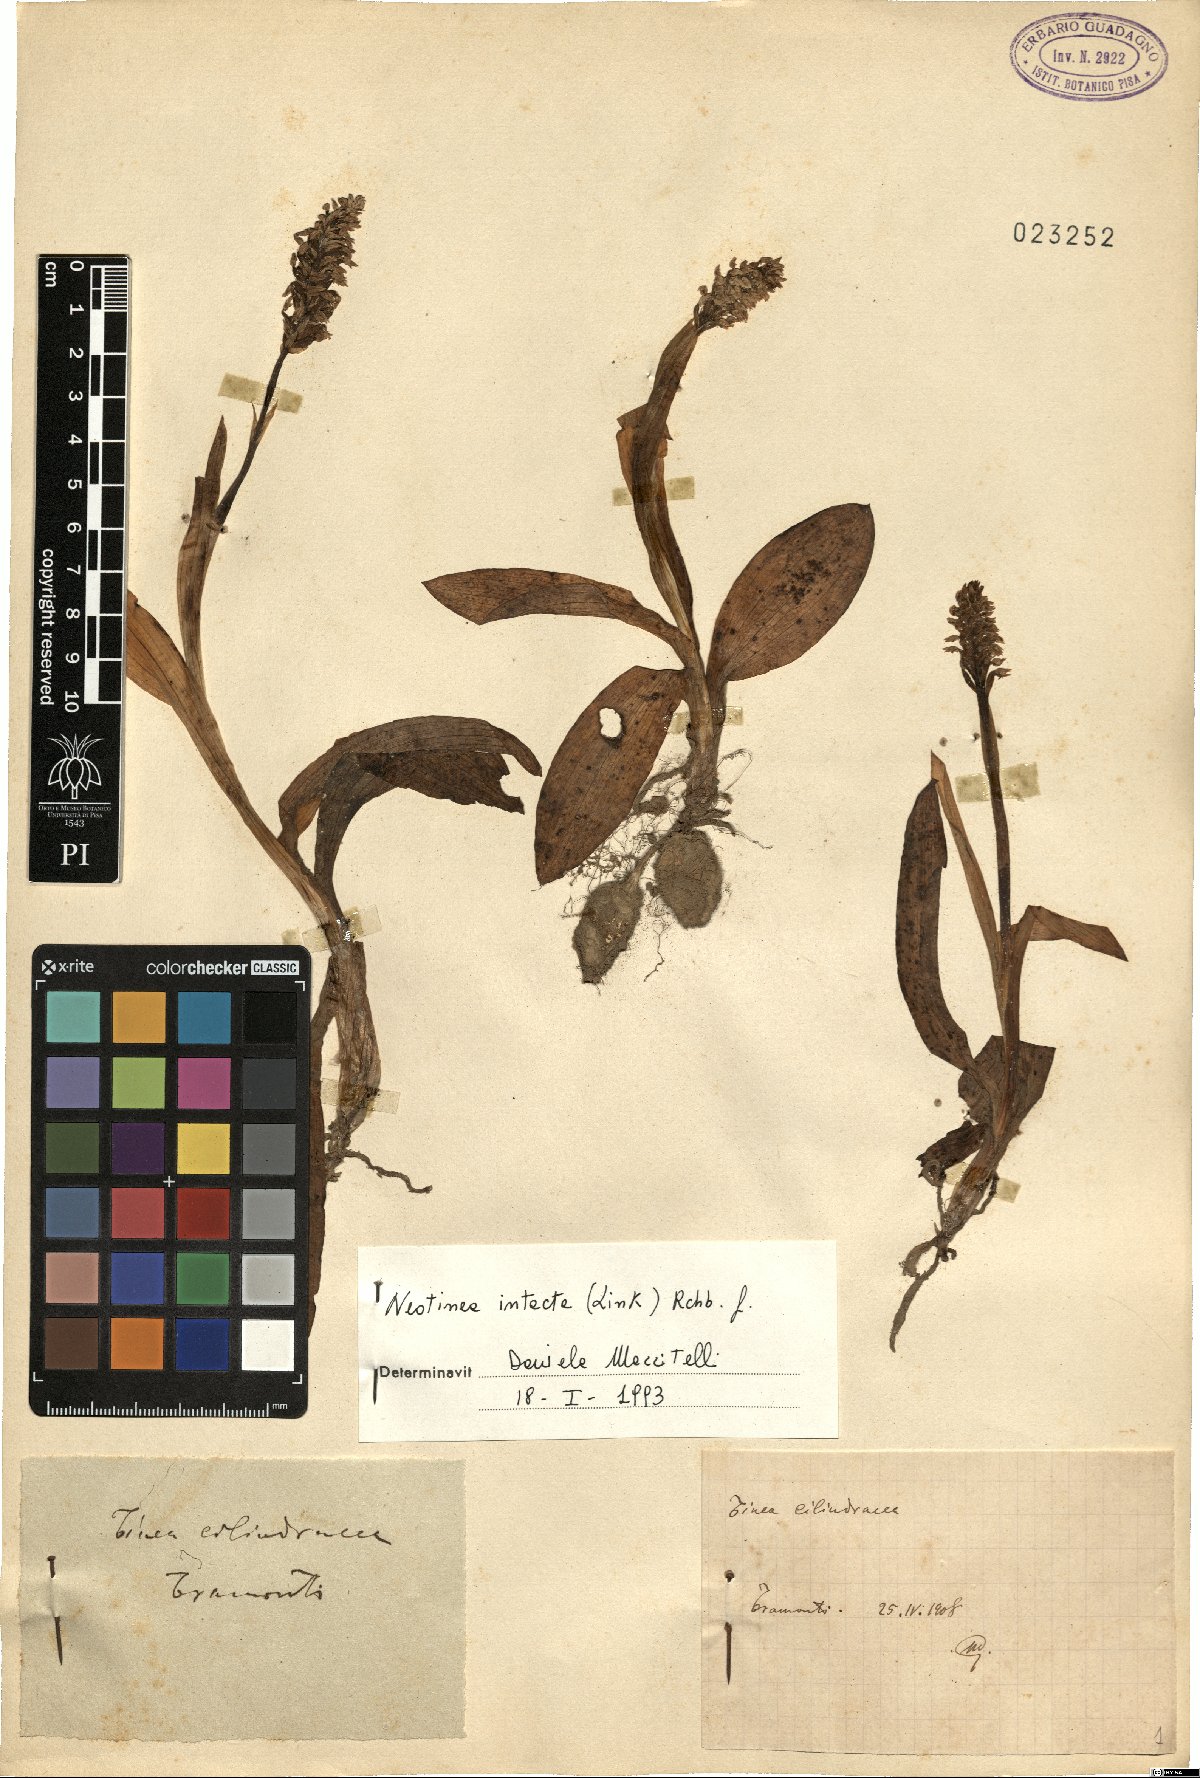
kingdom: Plantae
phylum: Tracheophyta
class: Liliopsida
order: Asparagales
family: Orchidaceae
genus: Neotinea
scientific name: Neotinea maculata
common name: Dense-flowered orchid
